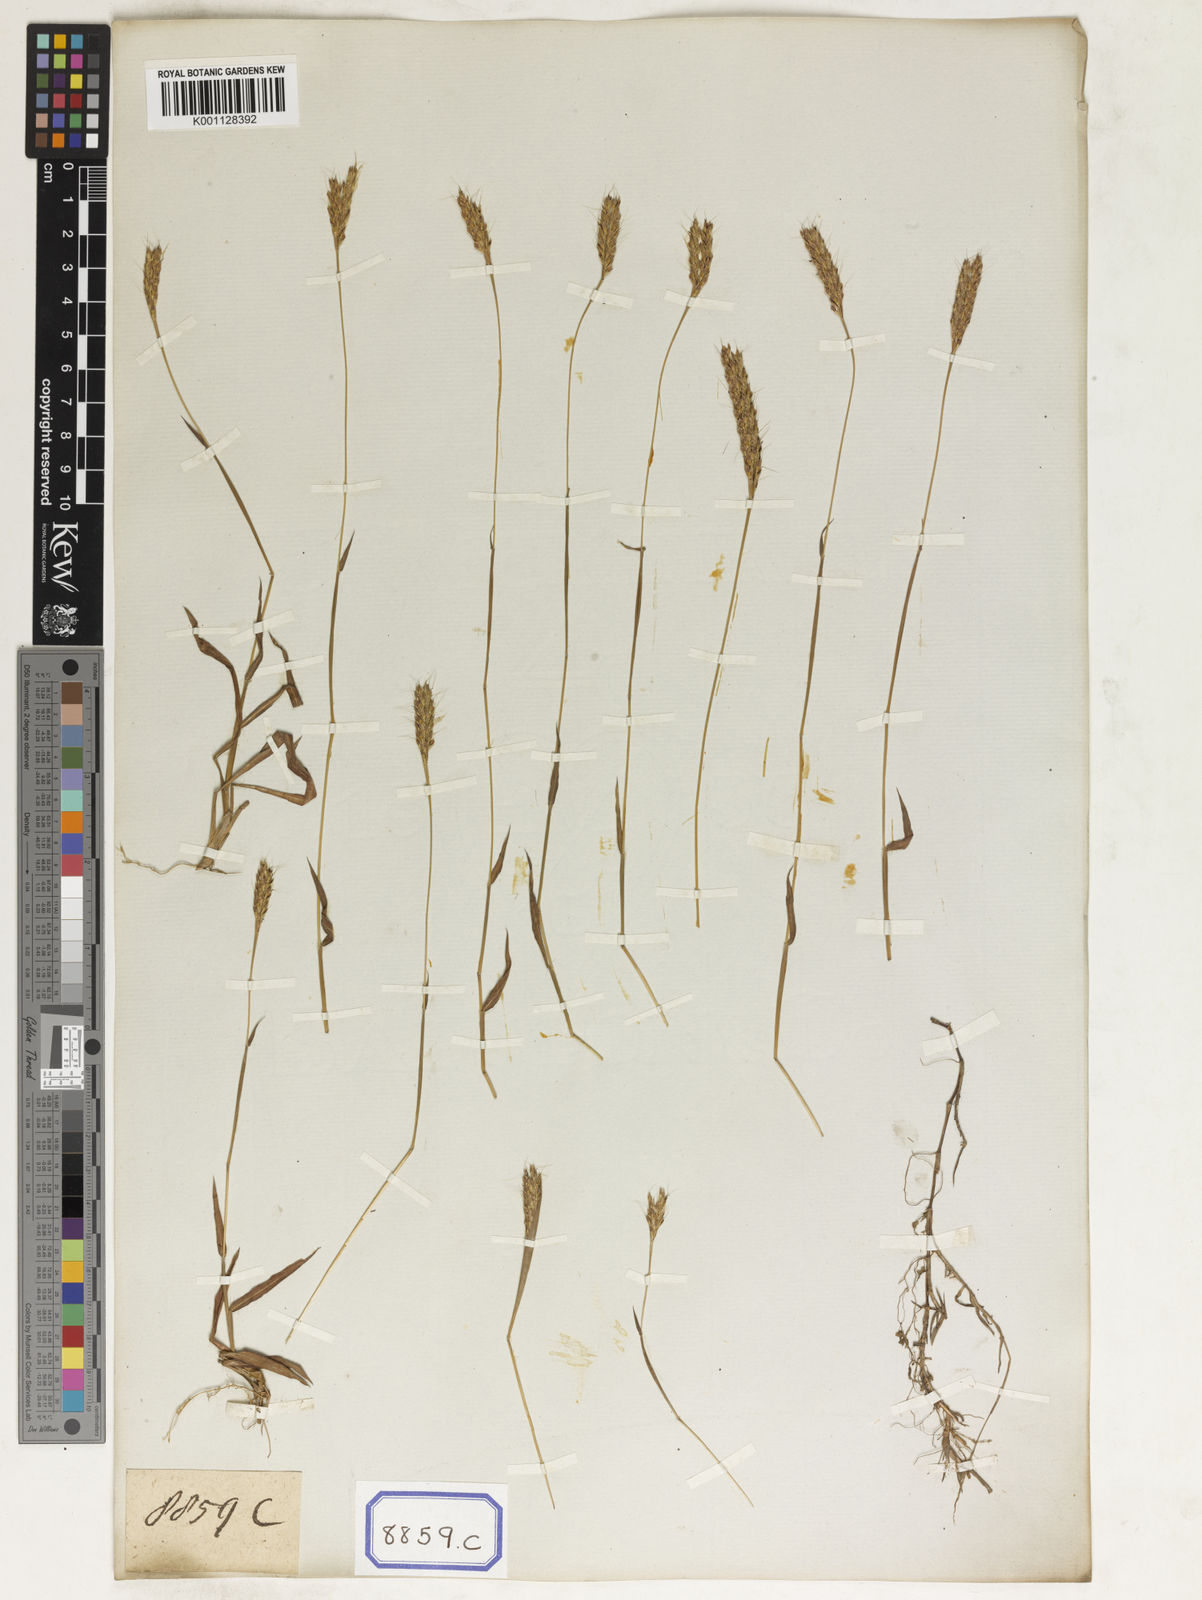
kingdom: Plantae
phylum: Tracheophyta
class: Liliopsida
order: Poales
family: Poaceae
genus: Spodiopogon
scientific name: Spodiopogon
